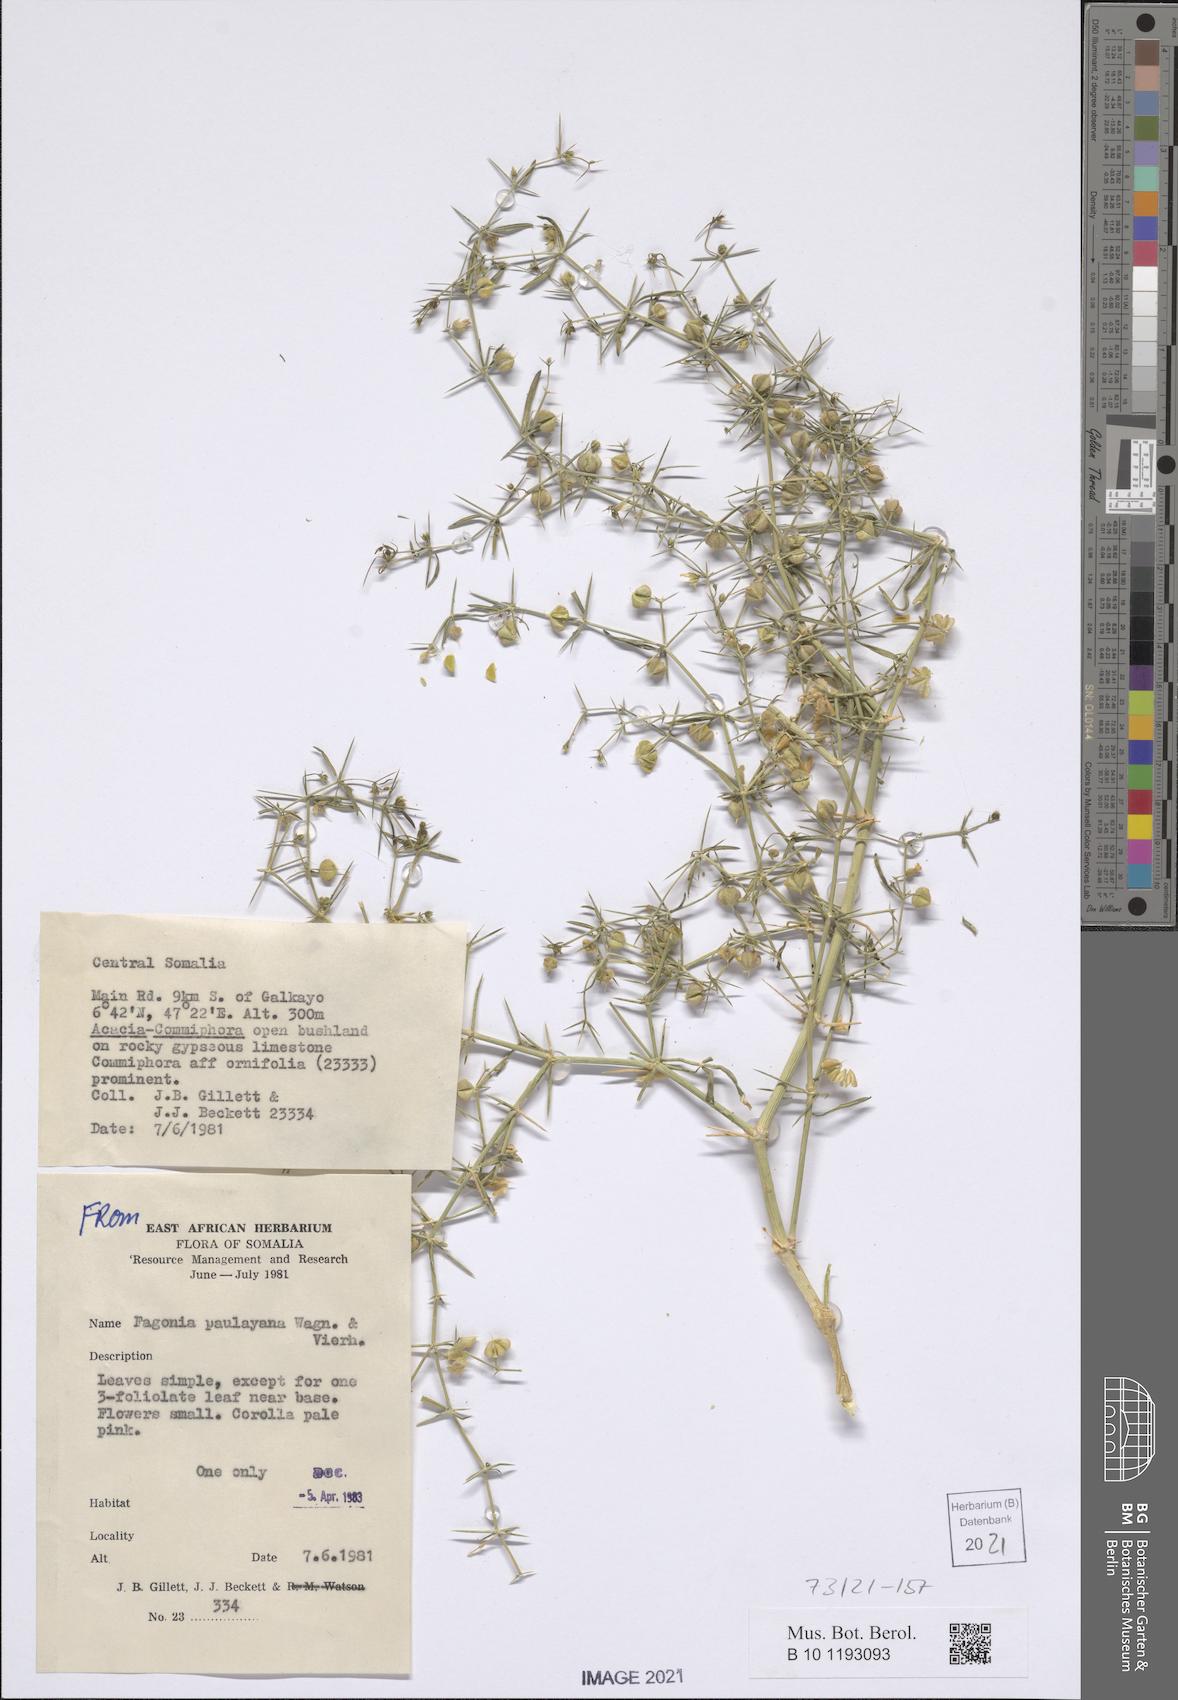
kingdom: Plantae
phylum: Tracheophyta
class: Magnoliopsida
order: Zygophyllales
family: Zygophyllaceae
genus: Fagonia
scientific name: Fagonia paulayana
